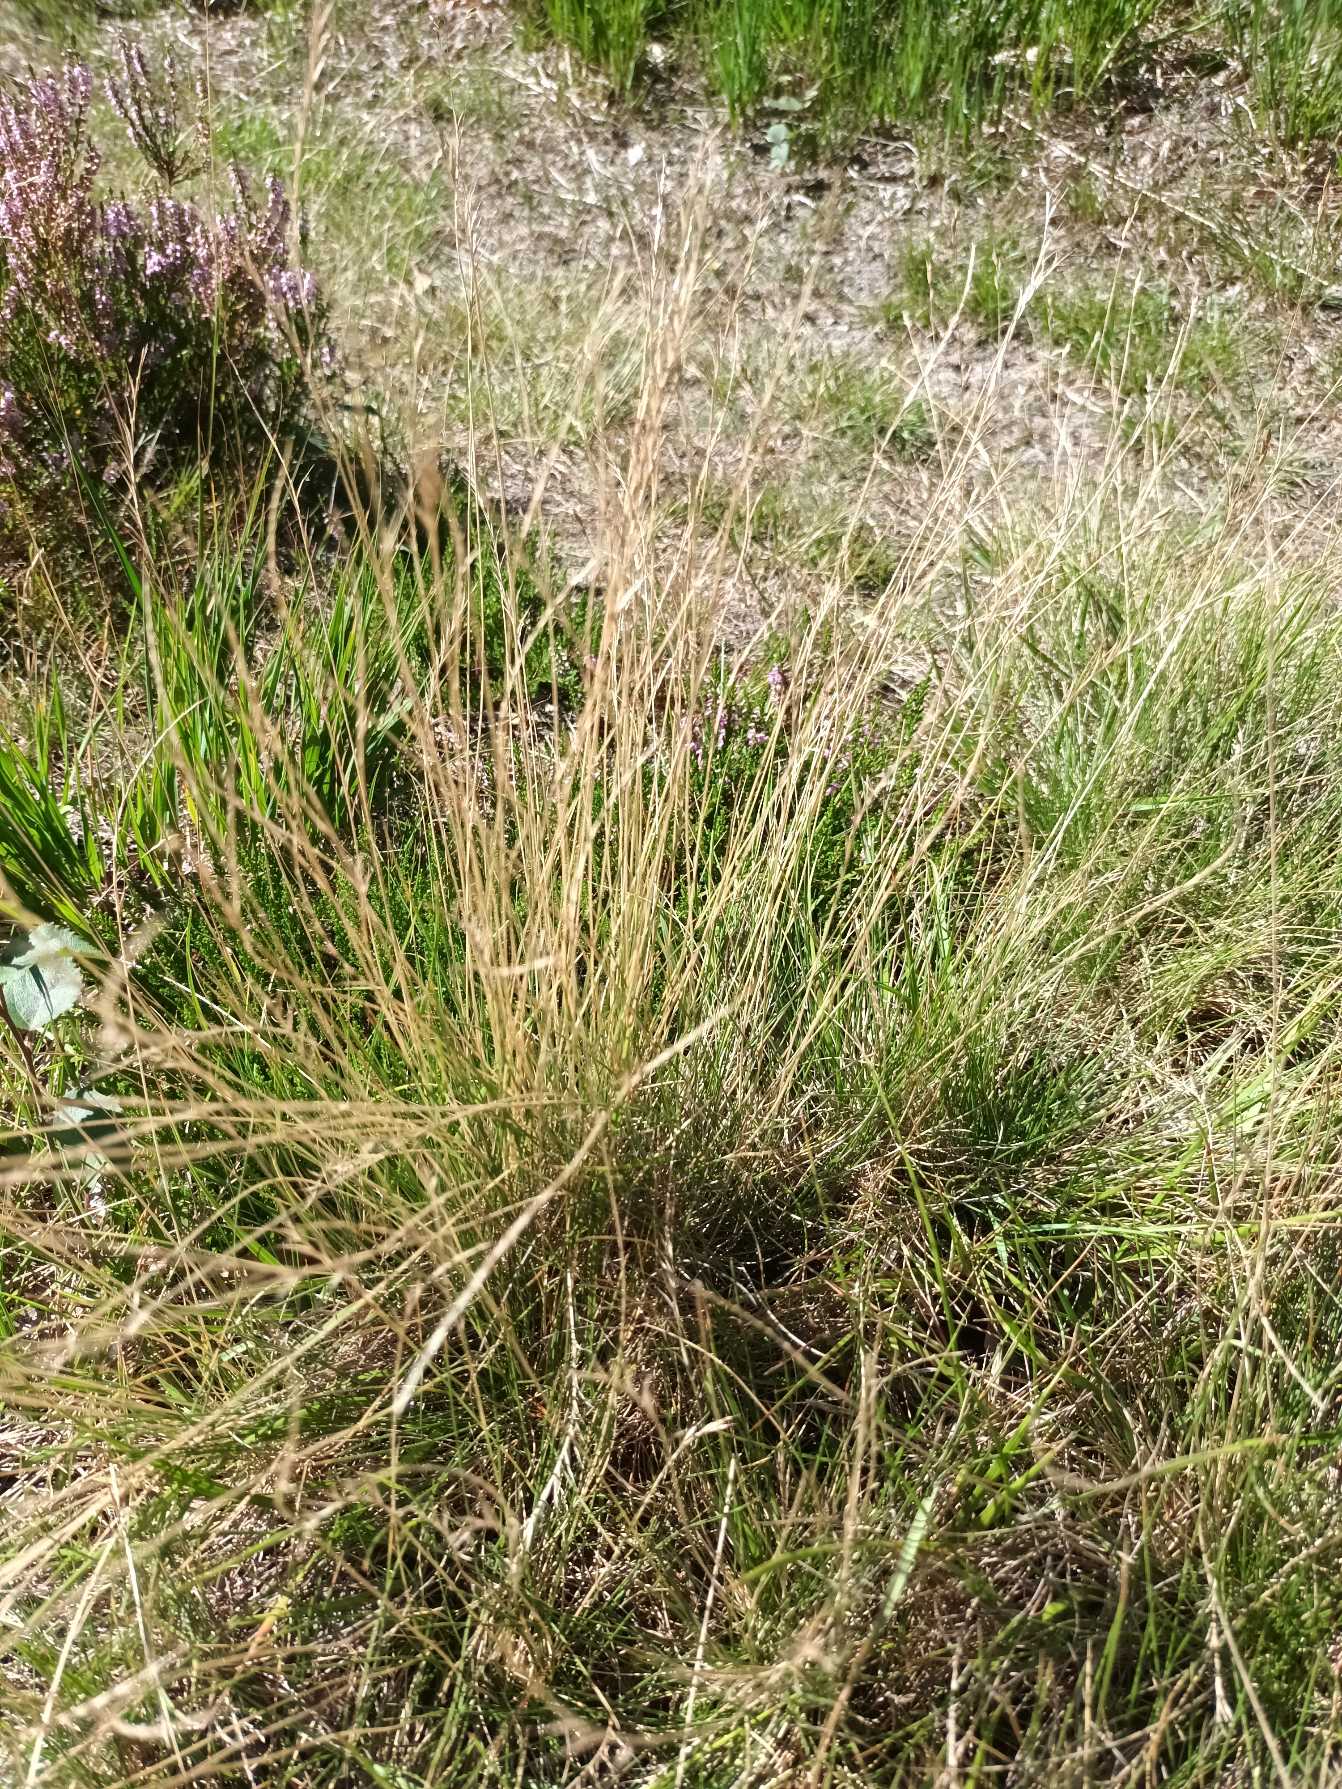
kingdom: Plantae
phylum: Tracheophyta
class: Liliopsida
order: Poales
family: Poaceae
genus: Nardus
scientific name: Nardus stricta
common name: Katteskæg
